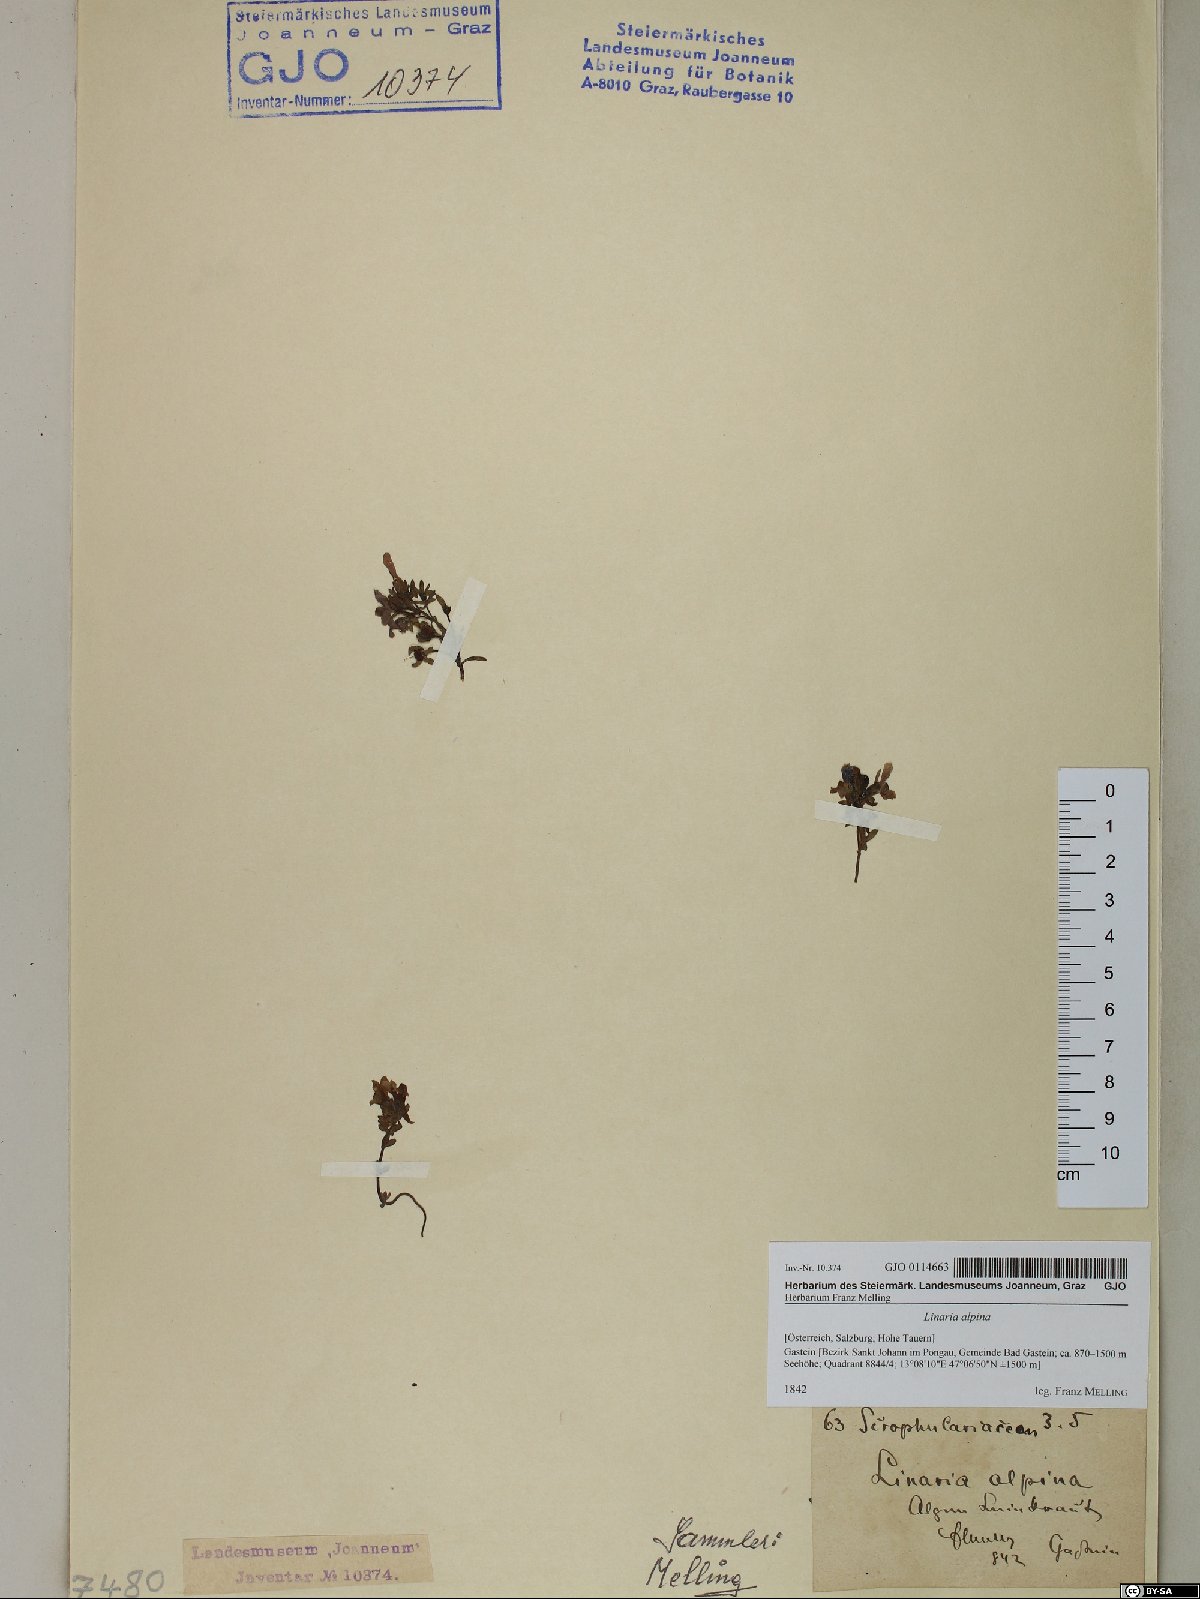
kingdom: Plantae
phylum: Tracheophyta
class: Magnoliopsida
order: Lamiales
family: Plantaginaceae
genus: Linaria
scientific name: Linaria alpina
